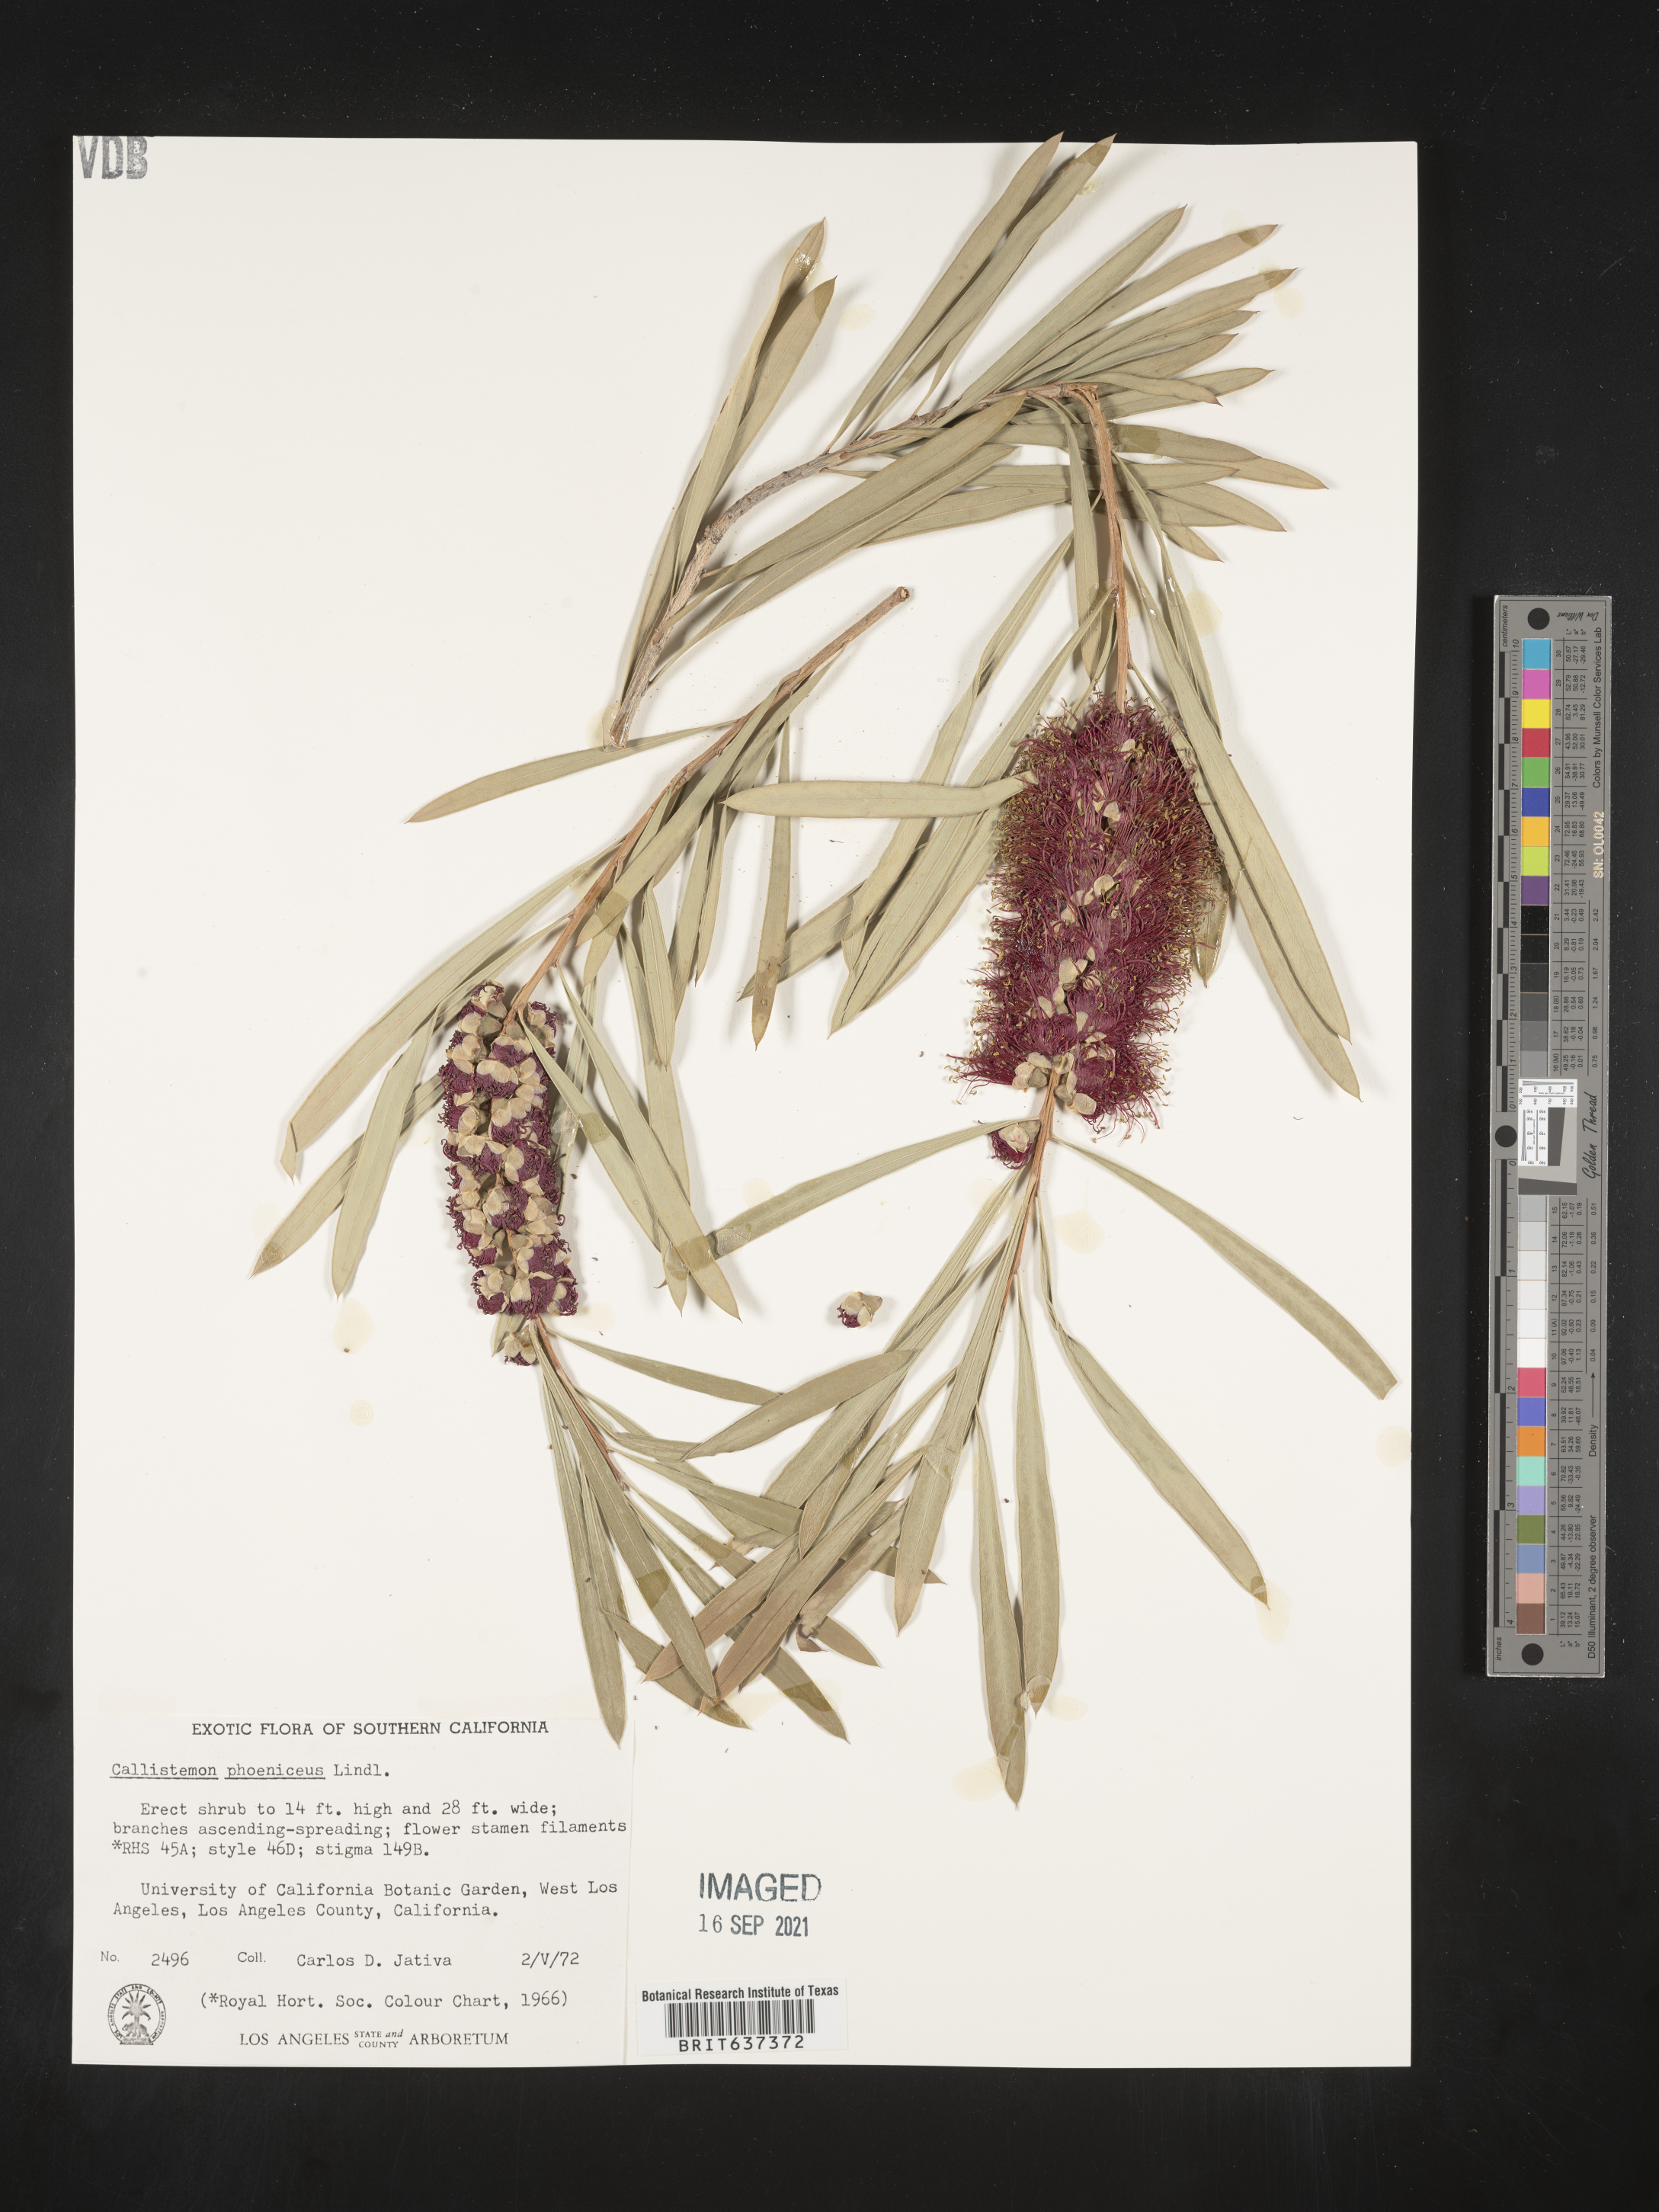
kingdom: Plantae
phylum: Tracheophyta
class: Magnoliopsida
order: Myrtales
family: Myrtaceae
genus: Callistemon
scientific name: Callistemon
